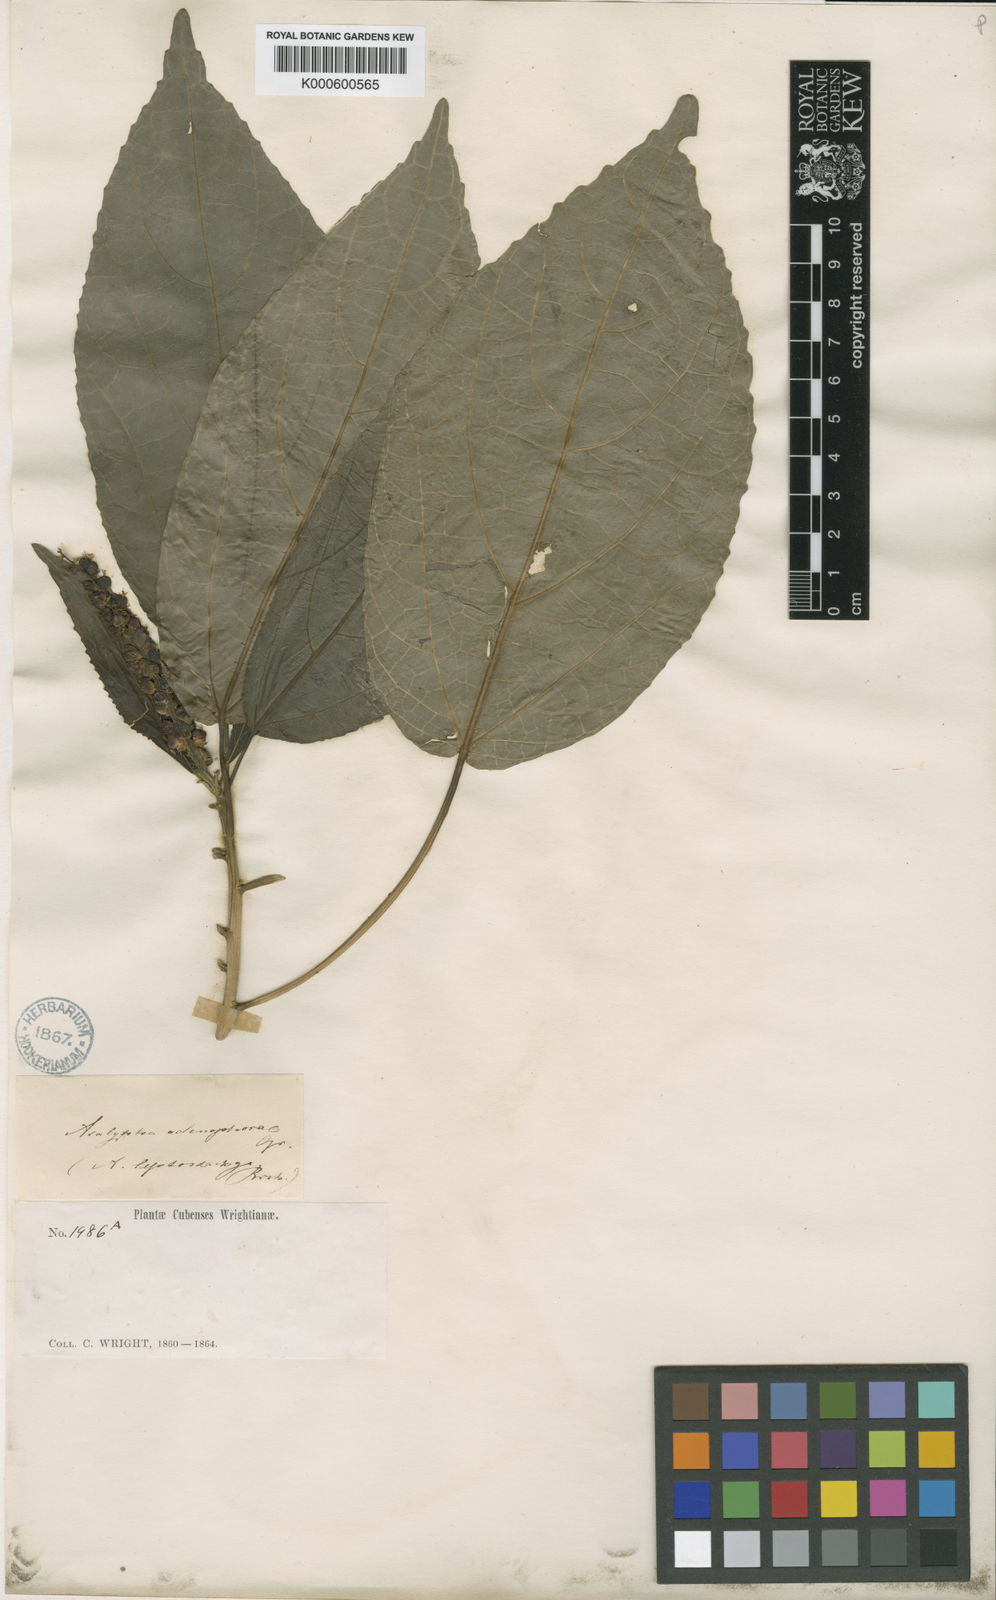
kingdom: Plantae
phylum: Tracheophyta
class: Magnoliopsida
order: Malpighiales
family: Euphorbiaceae
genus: Acalypha
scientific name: Acalypha membranacea
